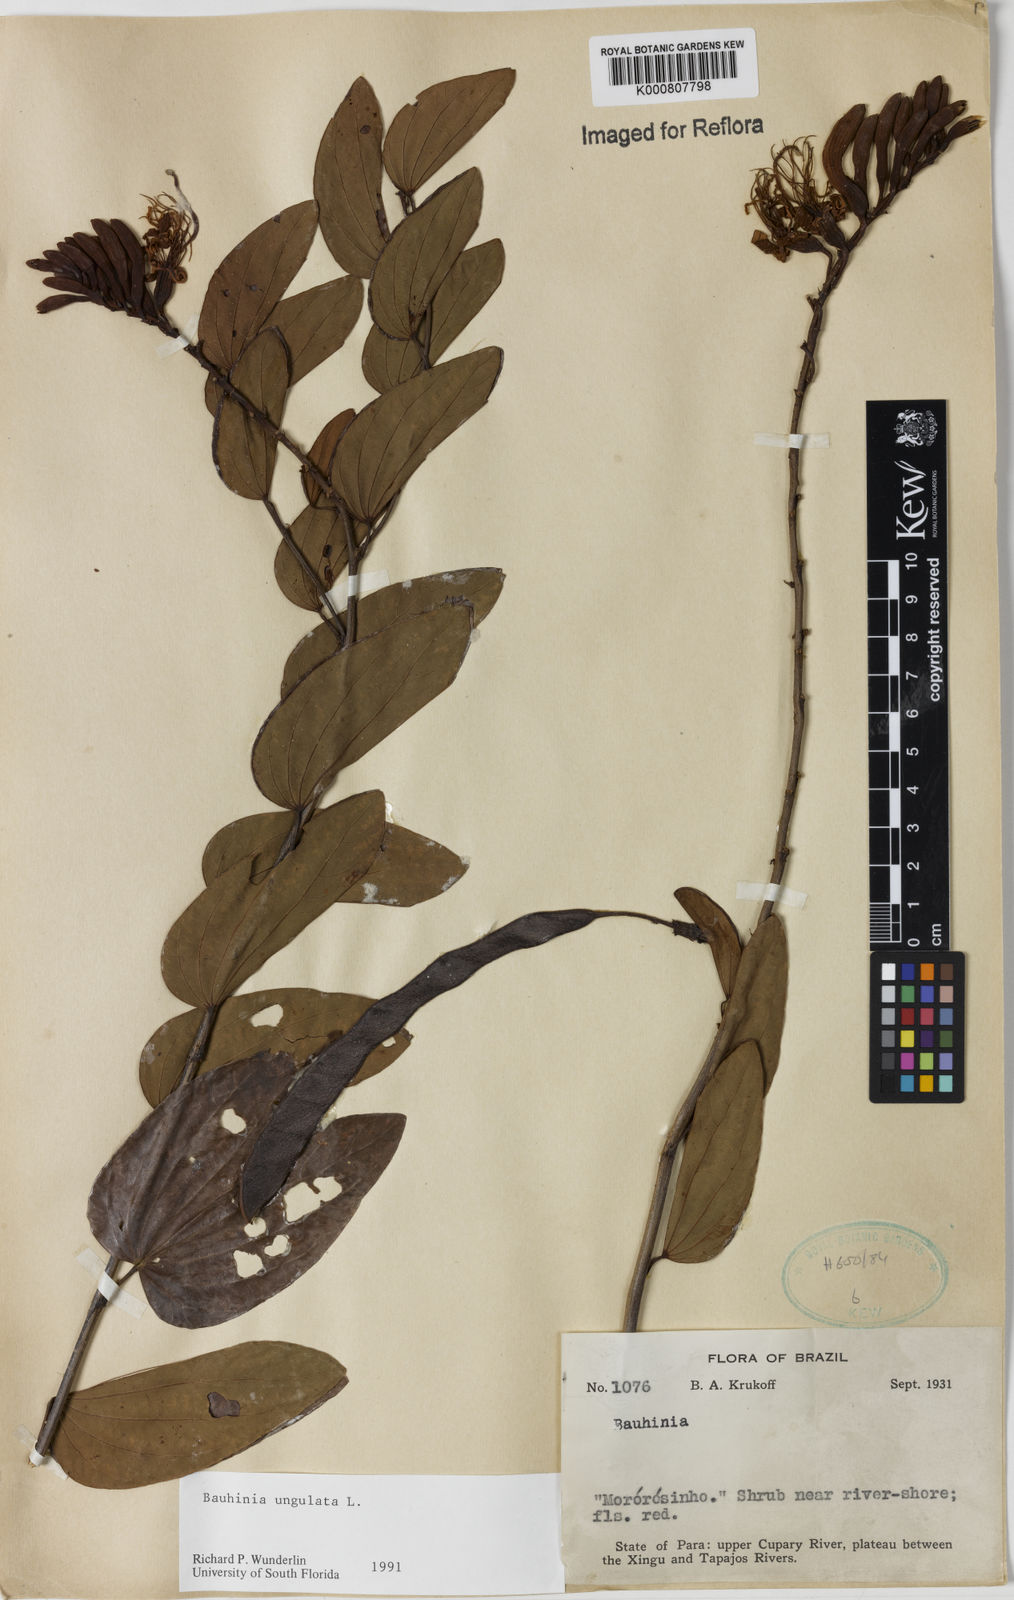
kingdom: Plantae
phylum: Tracheophyta
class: Magnoliopsida
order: Fabales
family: Fabaceae
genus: Bauhinia
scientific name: Bauhinia ungulata
